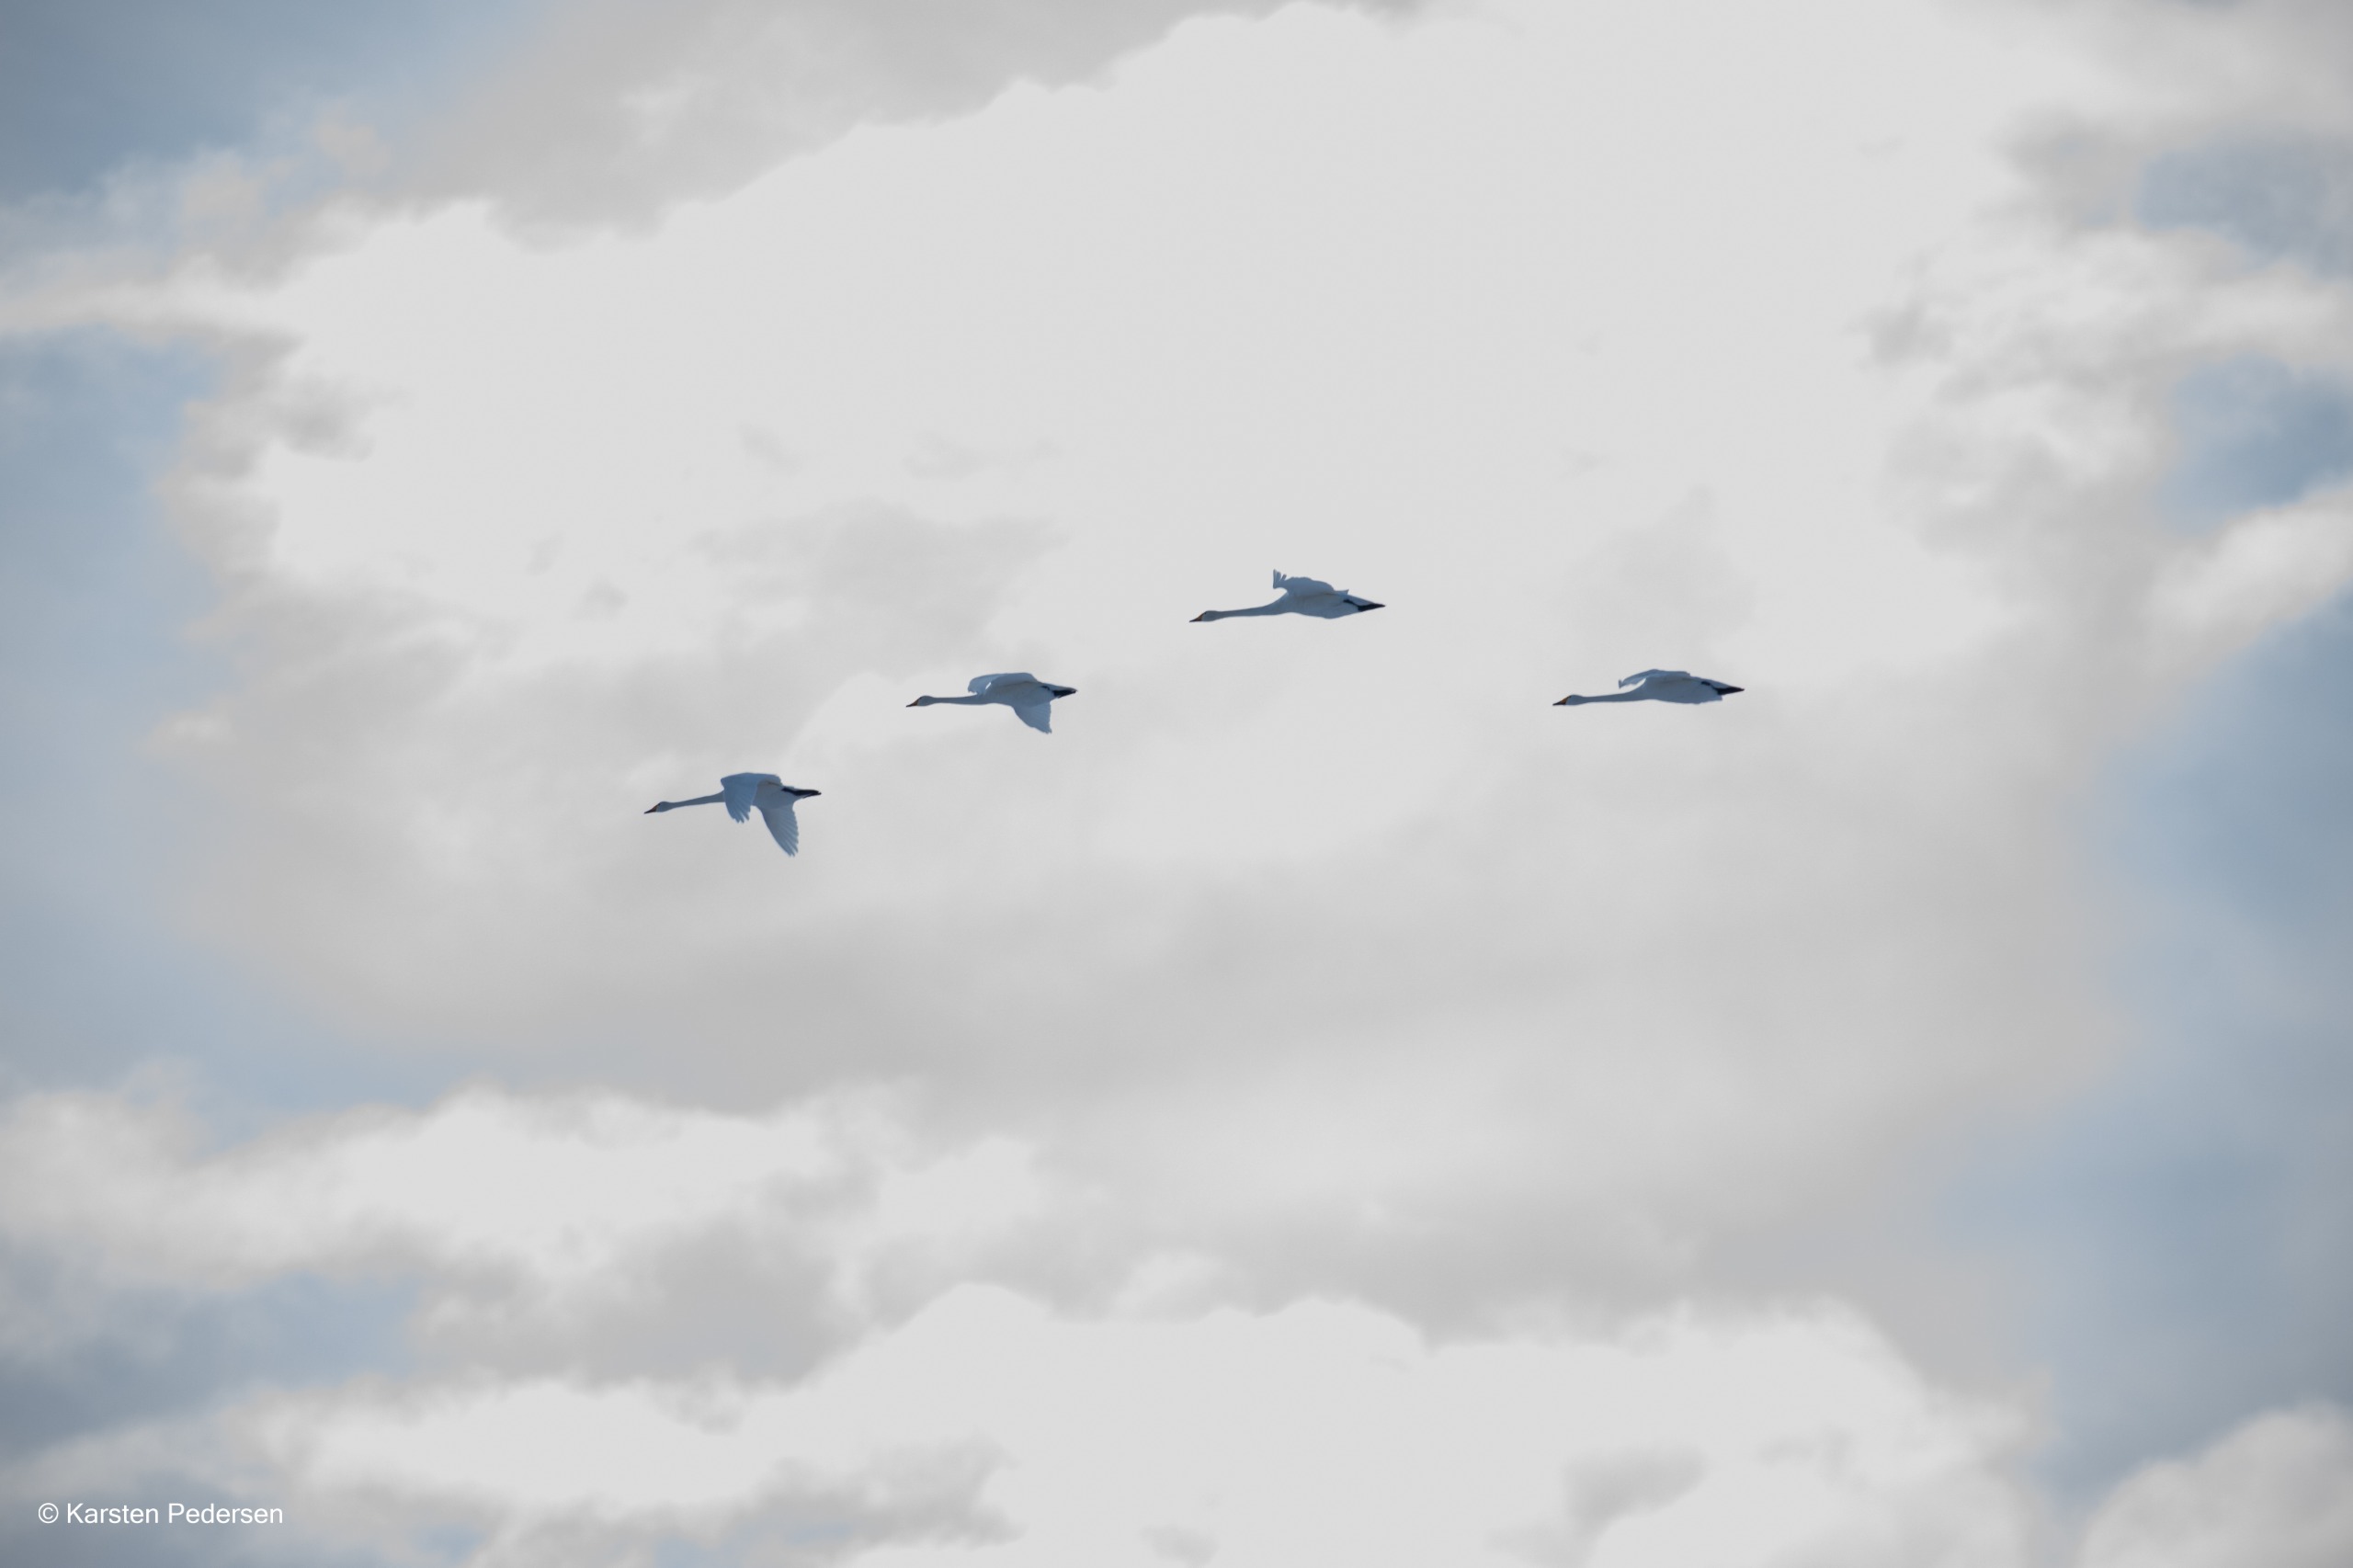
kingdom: Animalia
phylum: Chordata
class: Aves
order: Anseriformes
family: Anatidae
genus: Cygnus
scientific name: Cygnus cygnus
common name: Sangsvane
